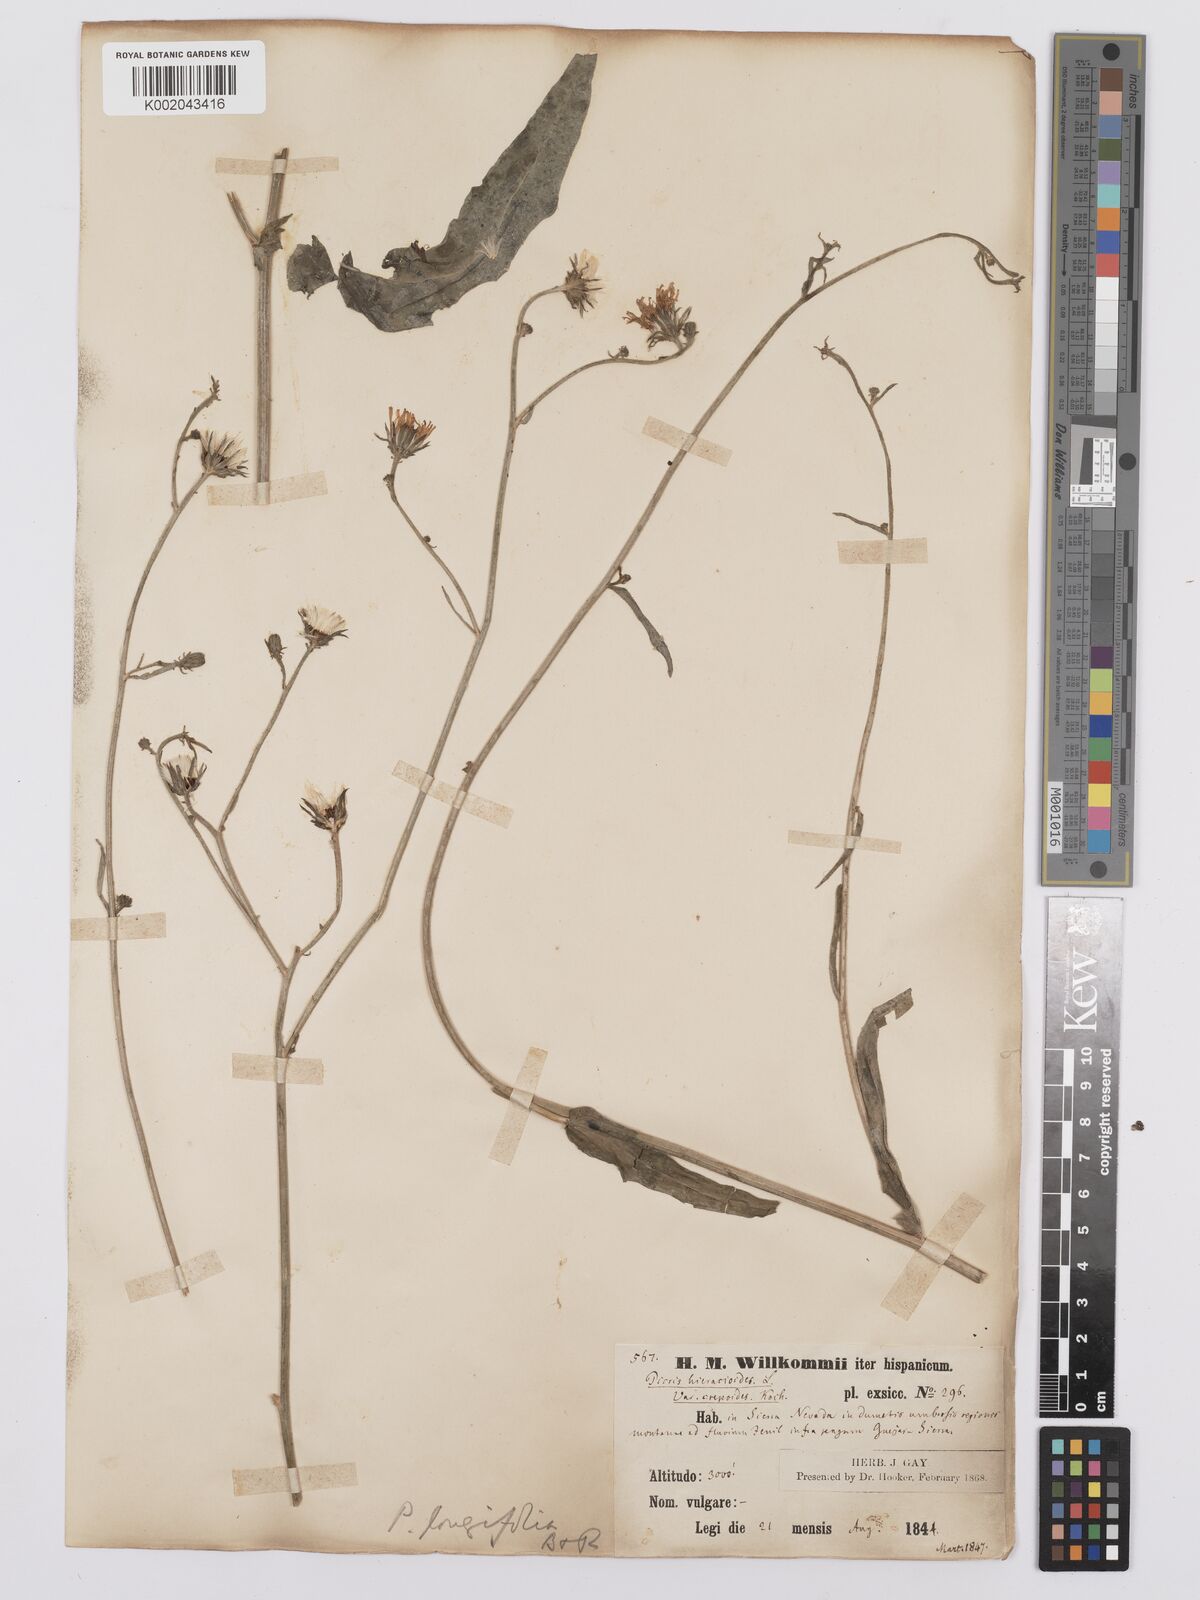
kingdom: Plantae
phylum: Tracheophyta
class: Magnoliopsida
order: Asterales
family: Asteraceae
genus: Picris
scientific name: Picris hieracioides
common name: Hawkweed oxtongue
